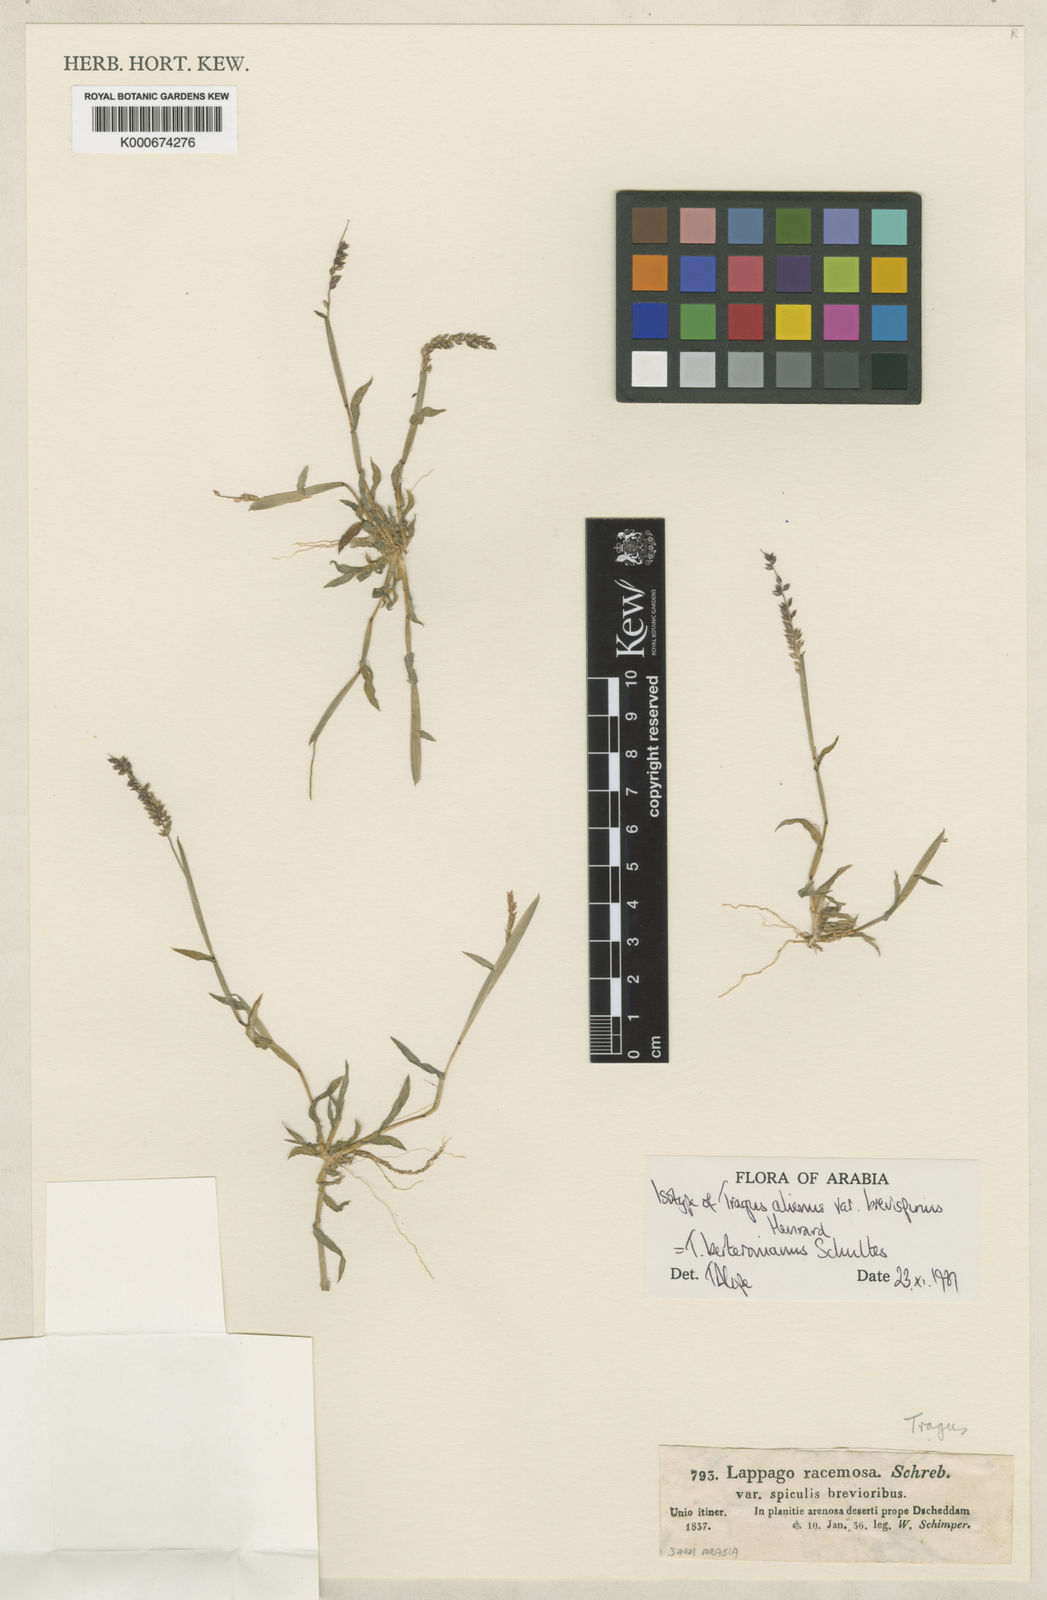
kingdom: Plantae
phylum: Tracheophyta
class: Liliopsida
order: Poales
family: Poaceae
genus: Tragus
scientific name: Tragus berteronianus
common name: African bur-grass
